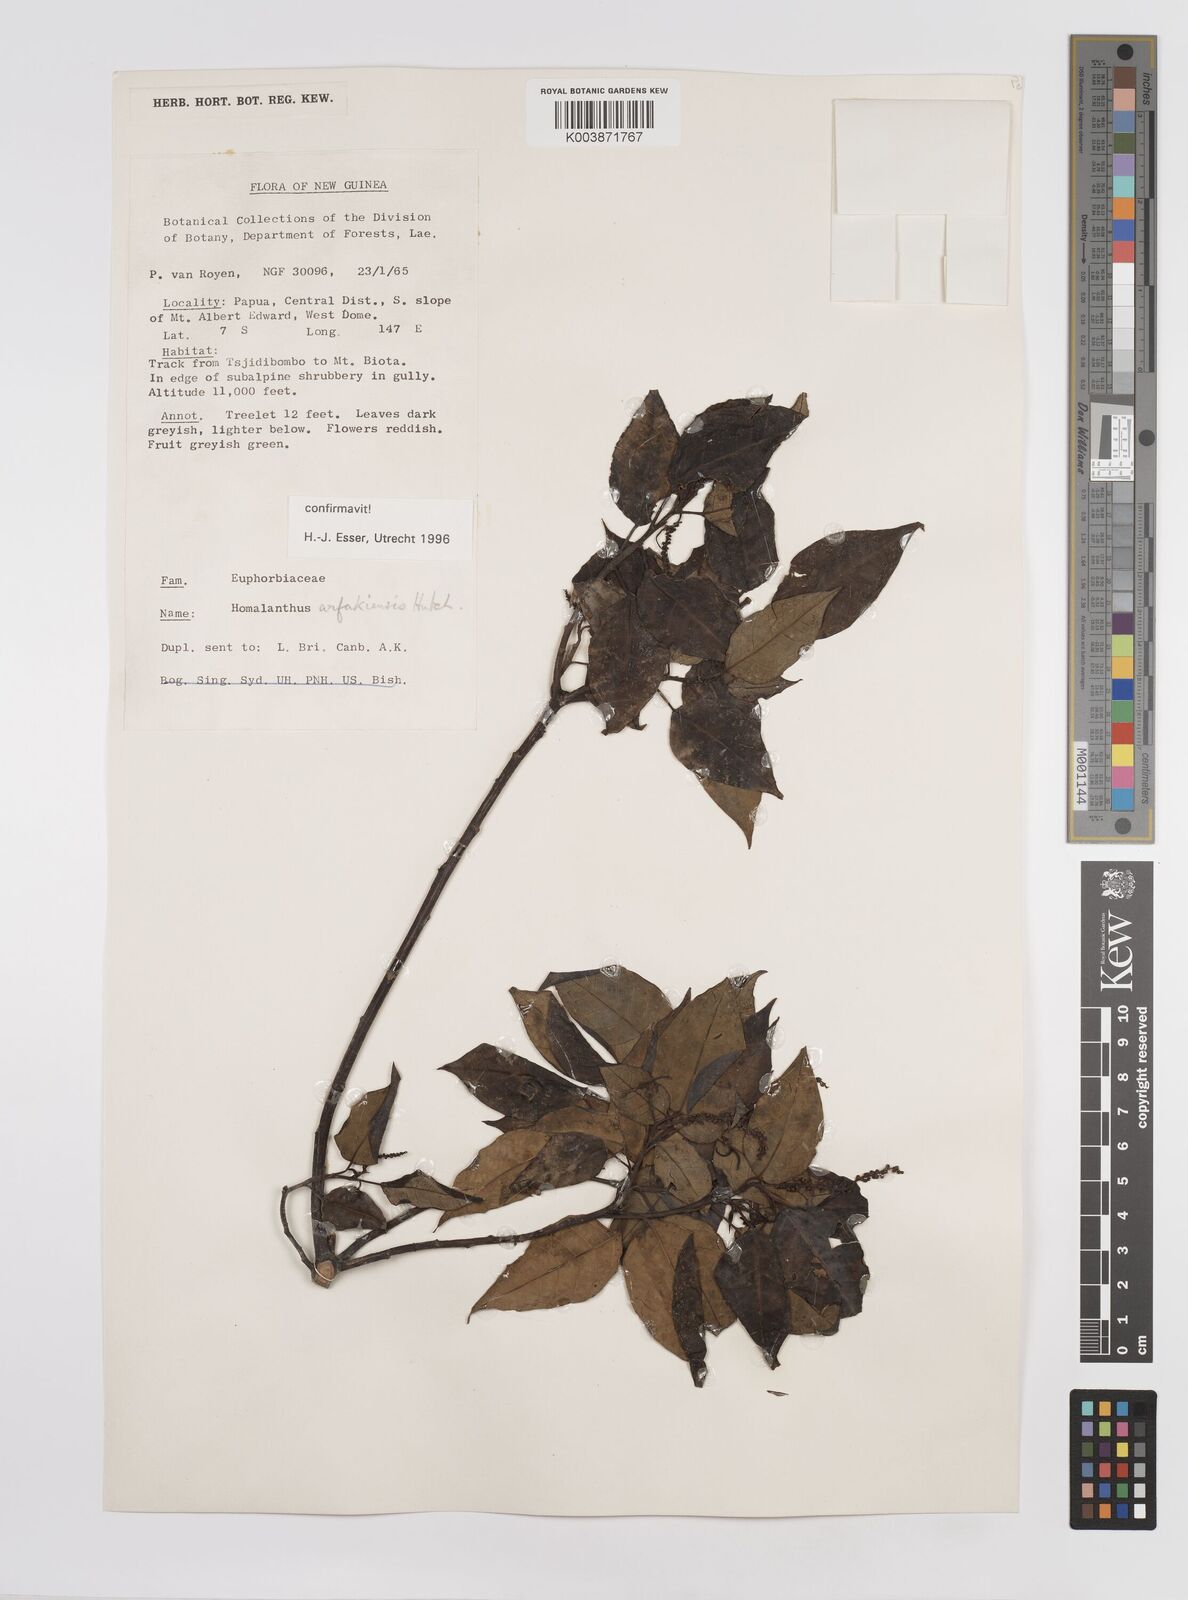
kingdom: Plantae
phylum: Tracheophyta
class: Magnoliopsida
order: Malpighiales
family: Euphorbiaceae
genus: Homalanthus
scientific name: Homalanthus arfakiensis
